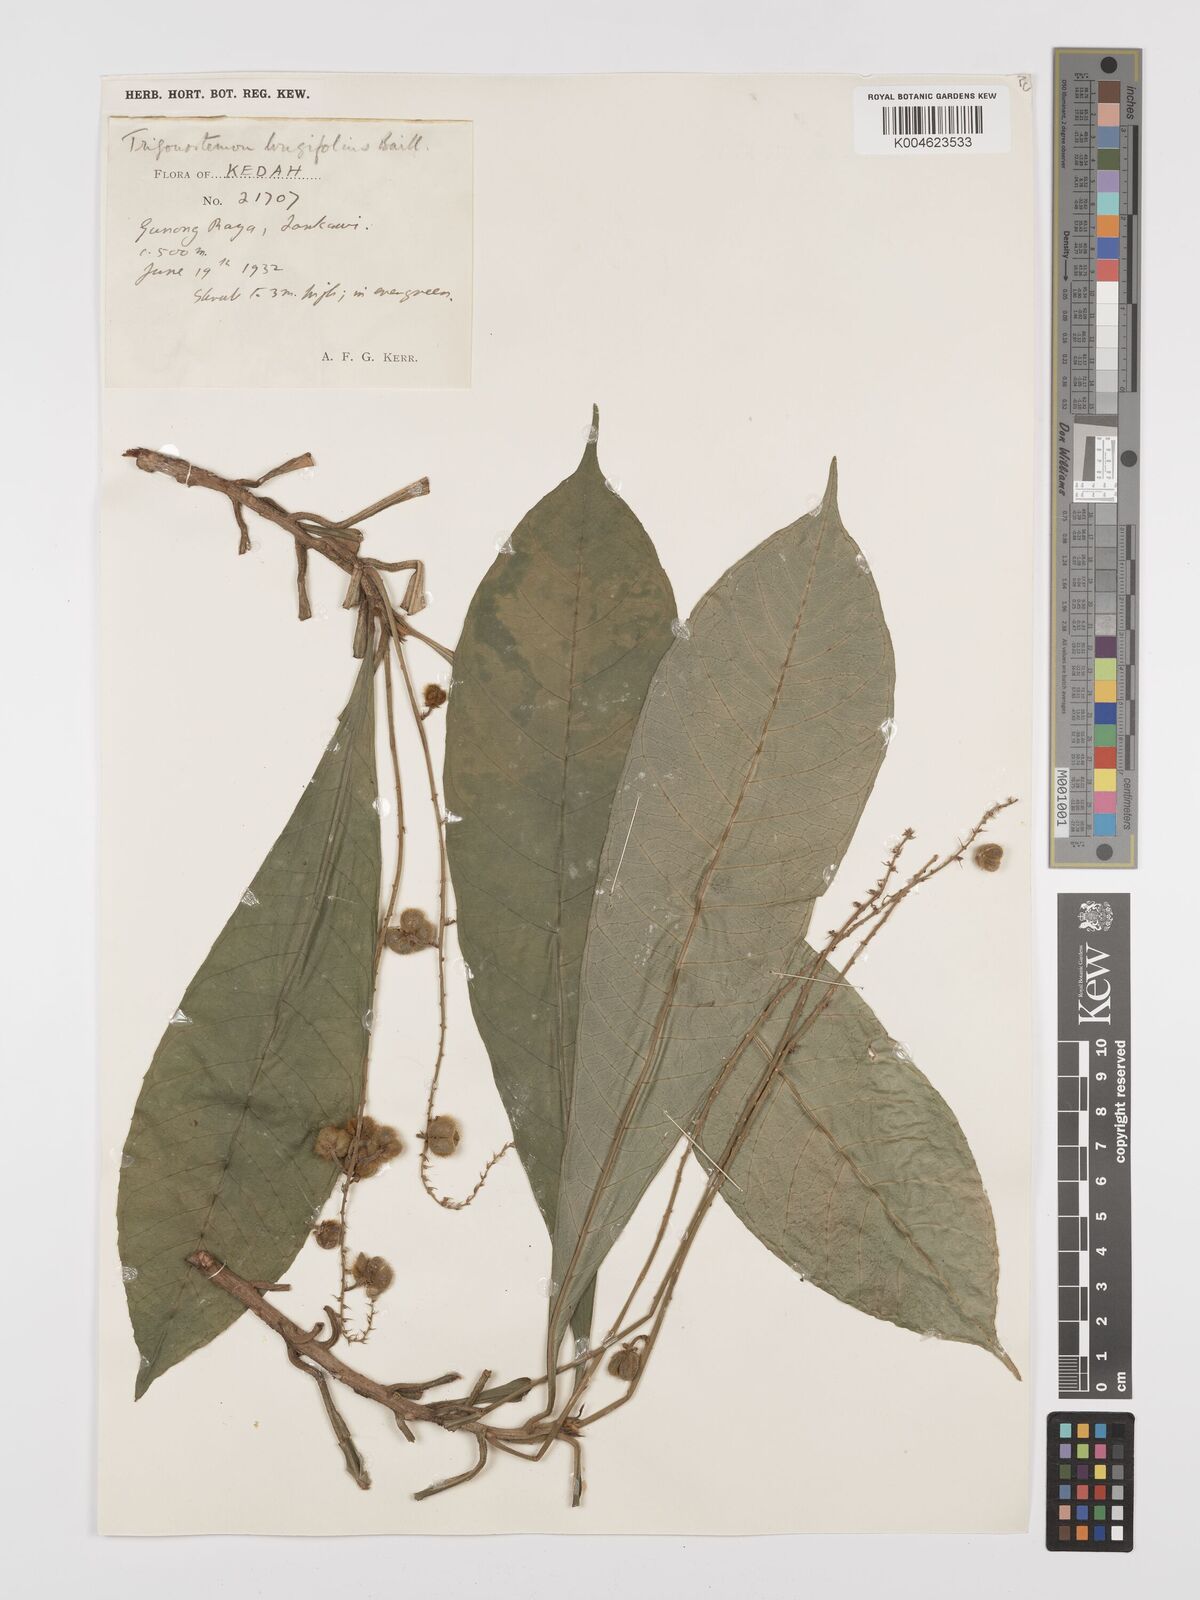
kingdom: Plantae
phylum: Tracheophyta
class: Magnoliopsida
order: Malpighiales
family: Euphorbiaceae
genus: Trigonostemon
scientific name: Trigonostemon longifolius
